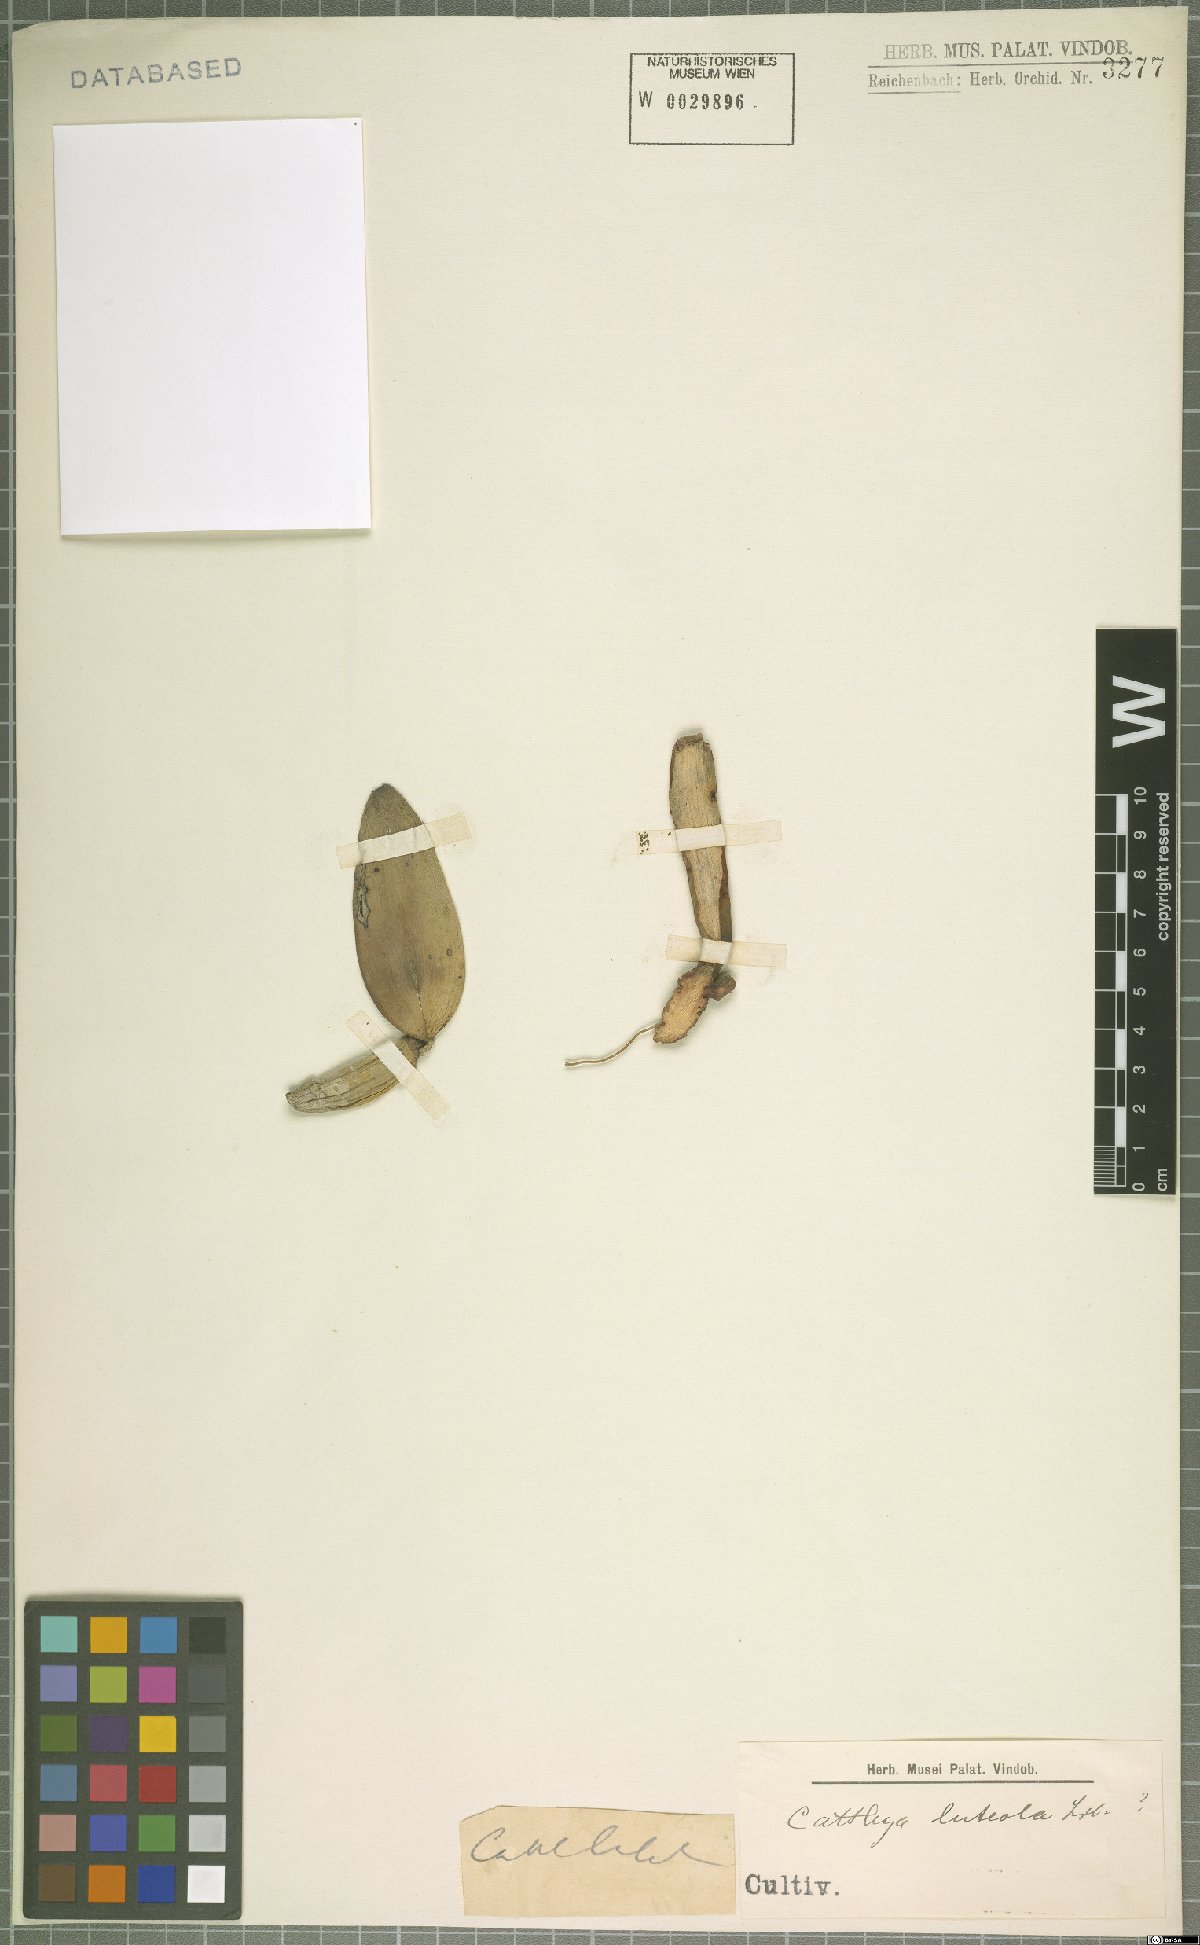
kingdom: Plantae
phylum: Tracheophyta
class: Liliopsida
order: Asparagales
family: Orchidaceae
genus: Cattleya
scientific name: Cattleya luteola
